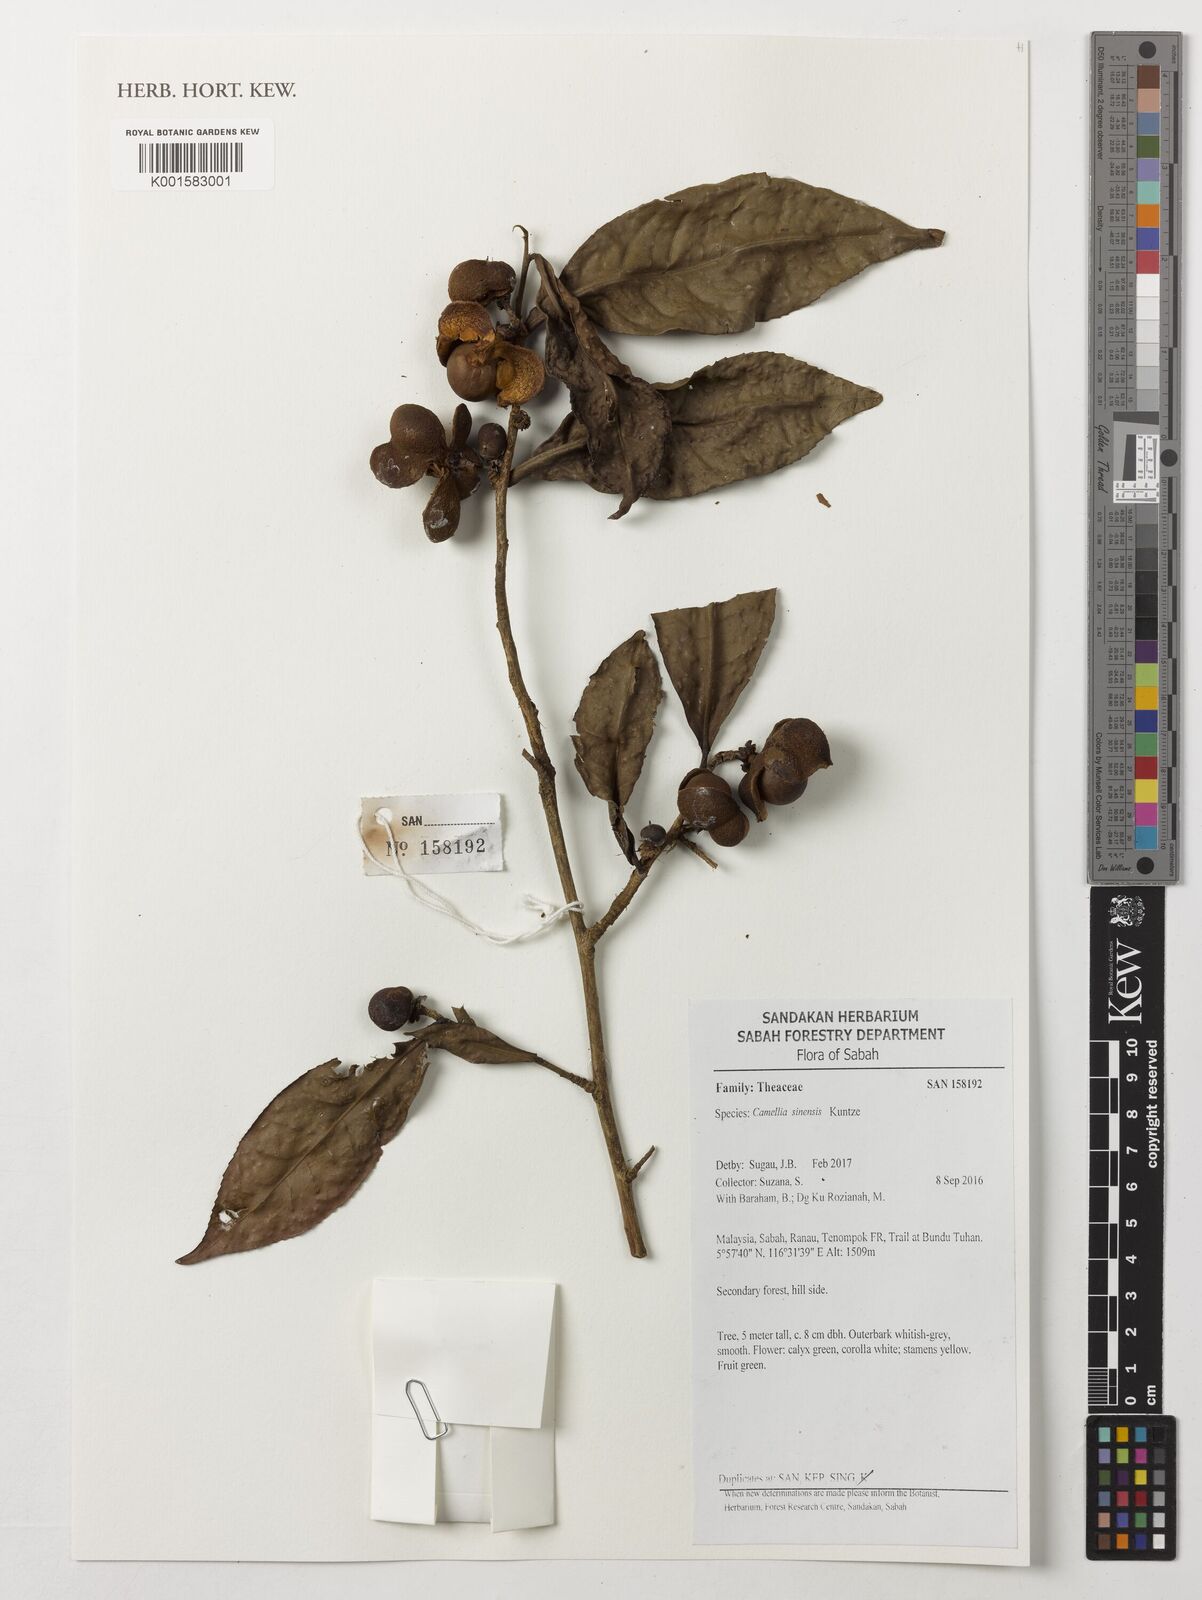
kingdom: Plantae
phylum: Tracheophyta
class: Magnoliopsida
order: Ericales
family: Theaceae
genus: Camellia
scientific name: Camellia sinensis
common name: Tea
